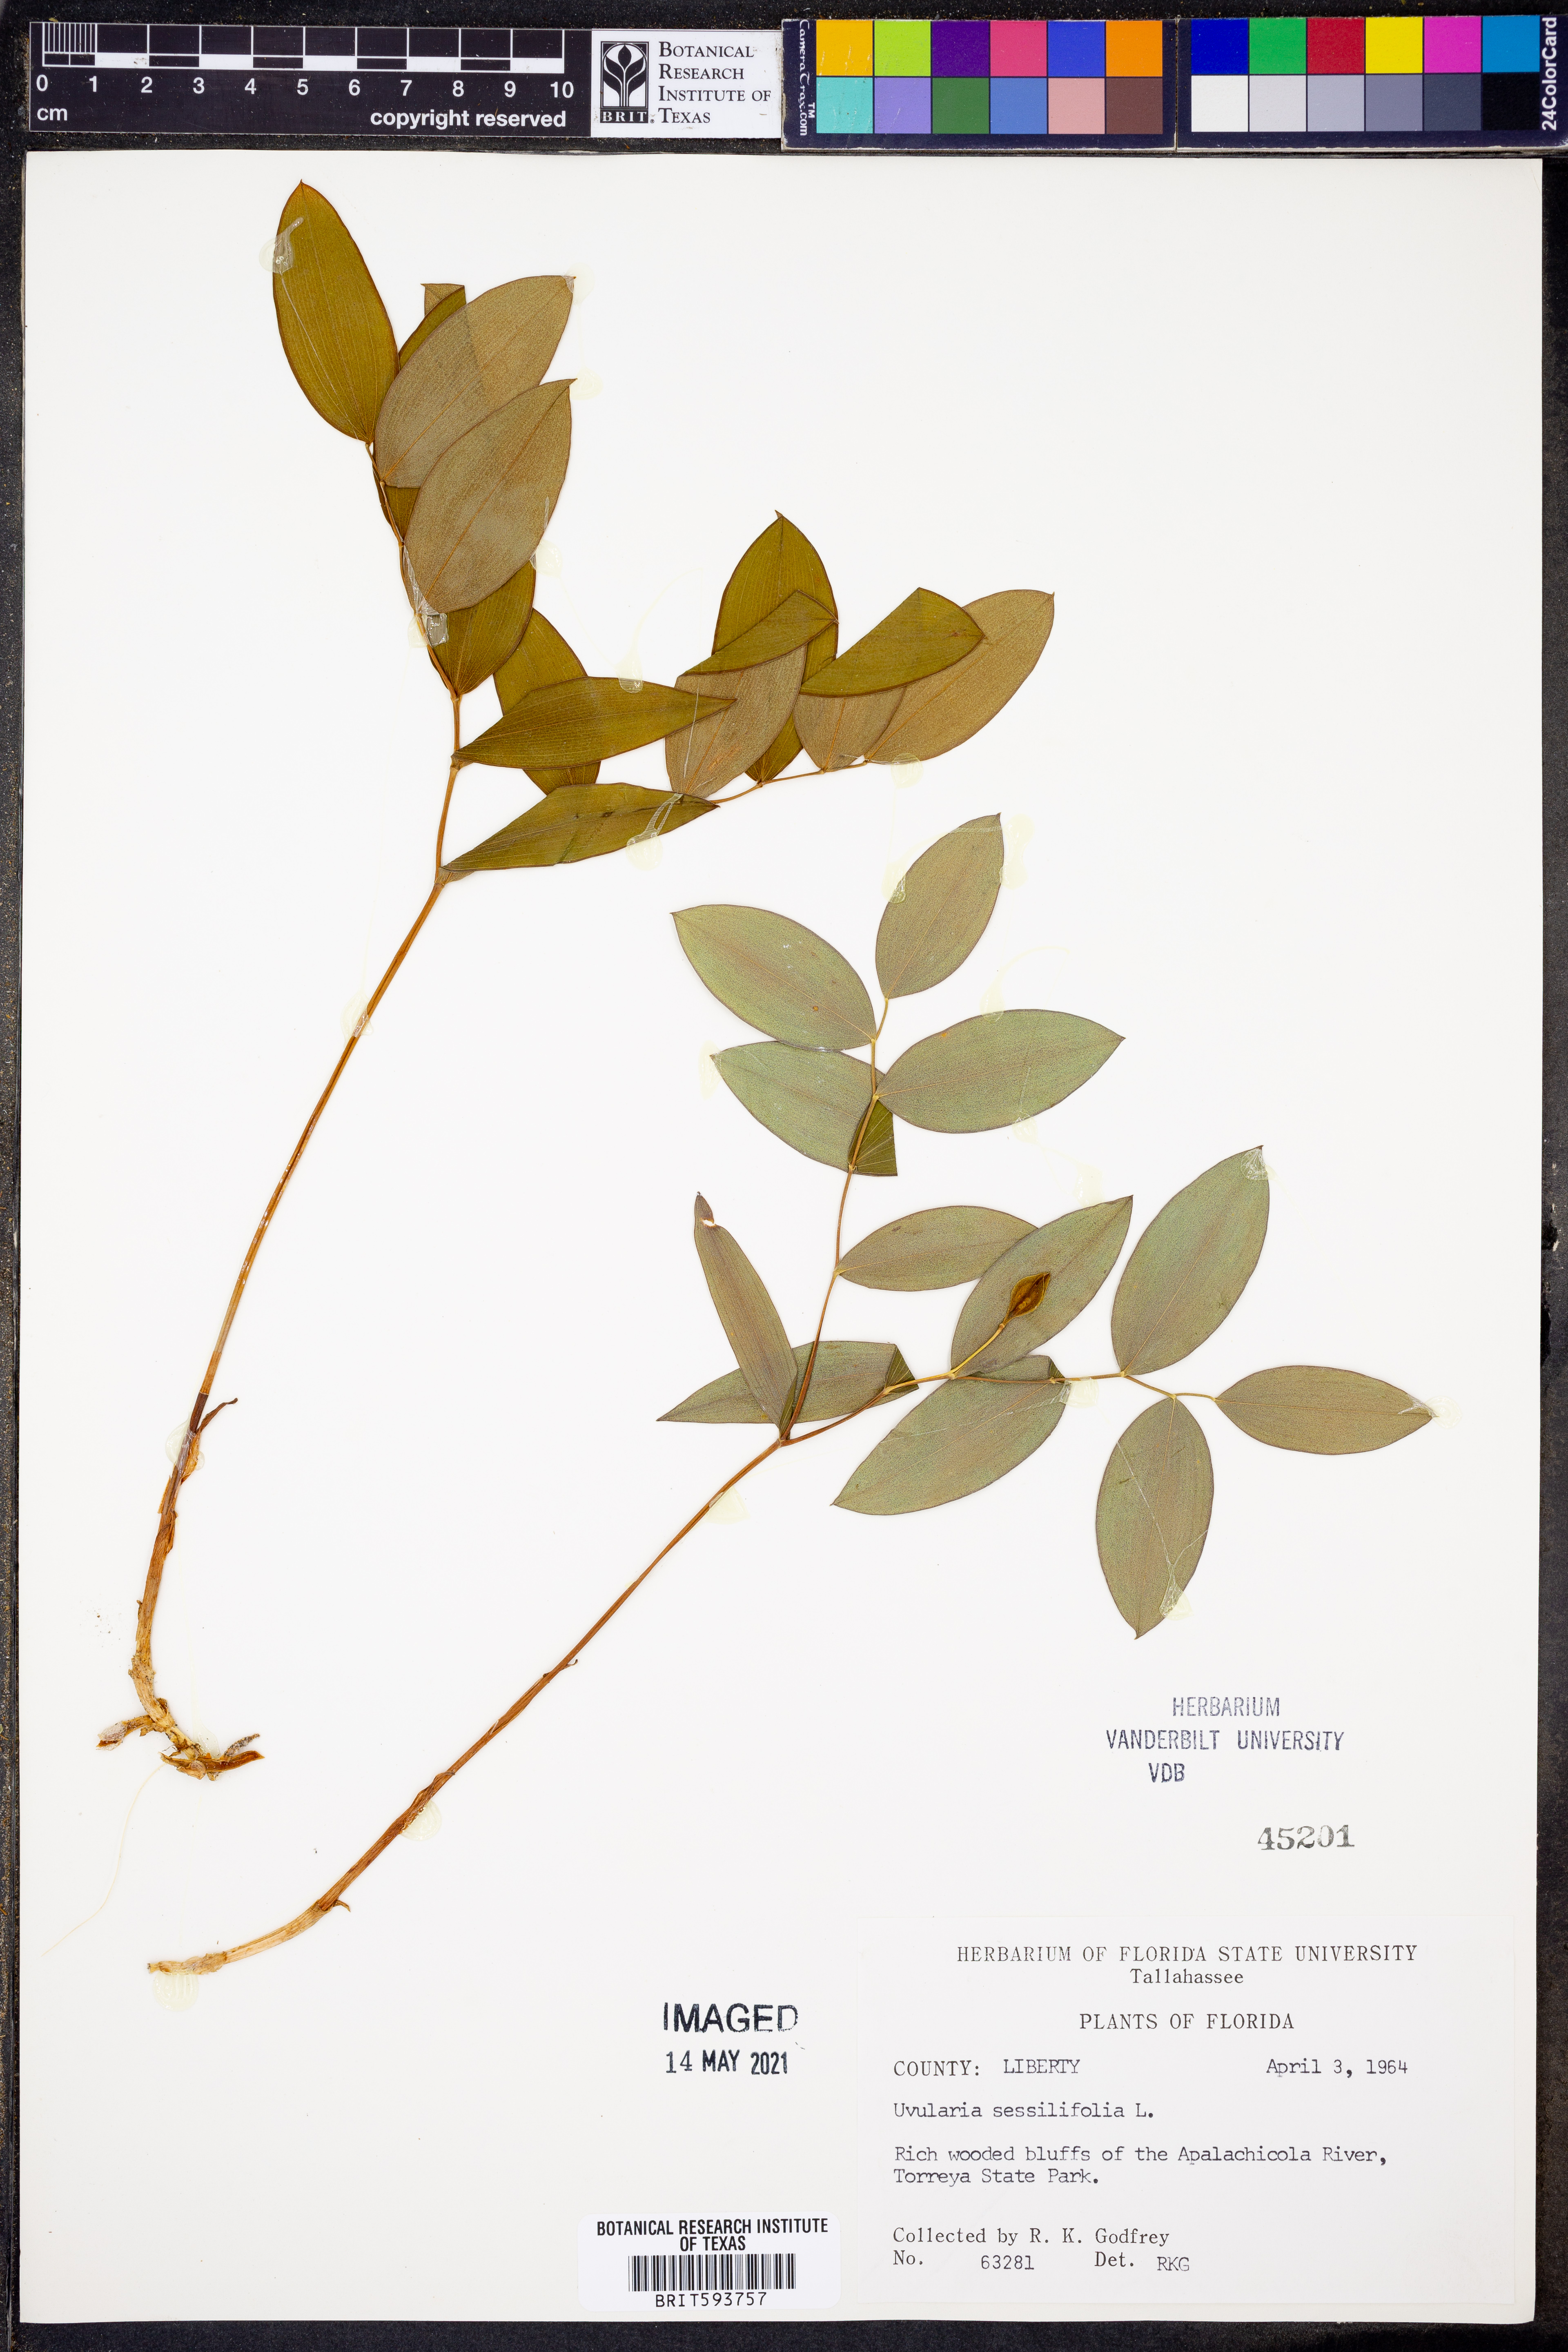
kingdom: Plantae
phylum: Tracheophyta
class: Liliopsida
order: Liliales
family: Colchicaceae
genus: Uvularia
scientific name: Uvularia sessilifolia
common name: Straw-lily
